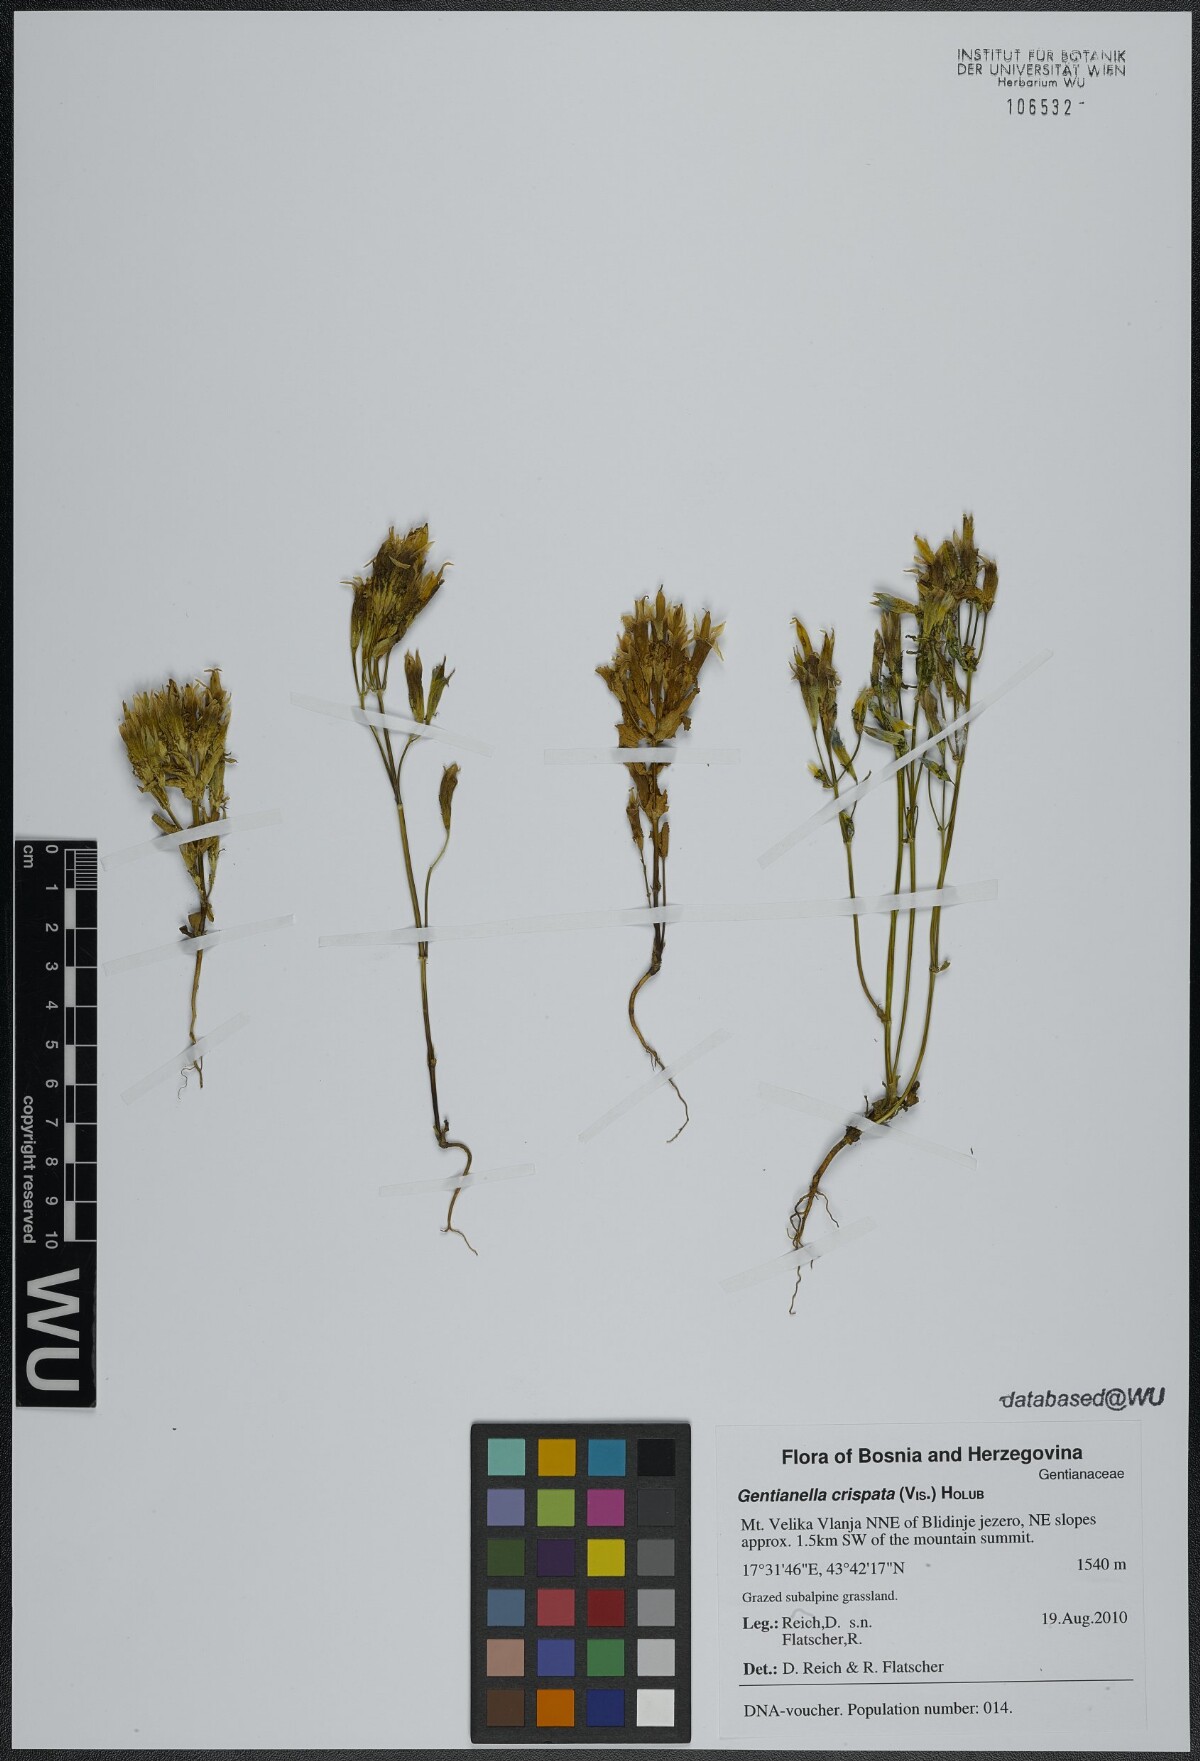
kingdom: Plantae
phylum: Tracheophyta
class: Magnoliopsida
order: Gentianales
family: Gentianaceae
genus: Gentianella
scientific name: Gentianella crispata
